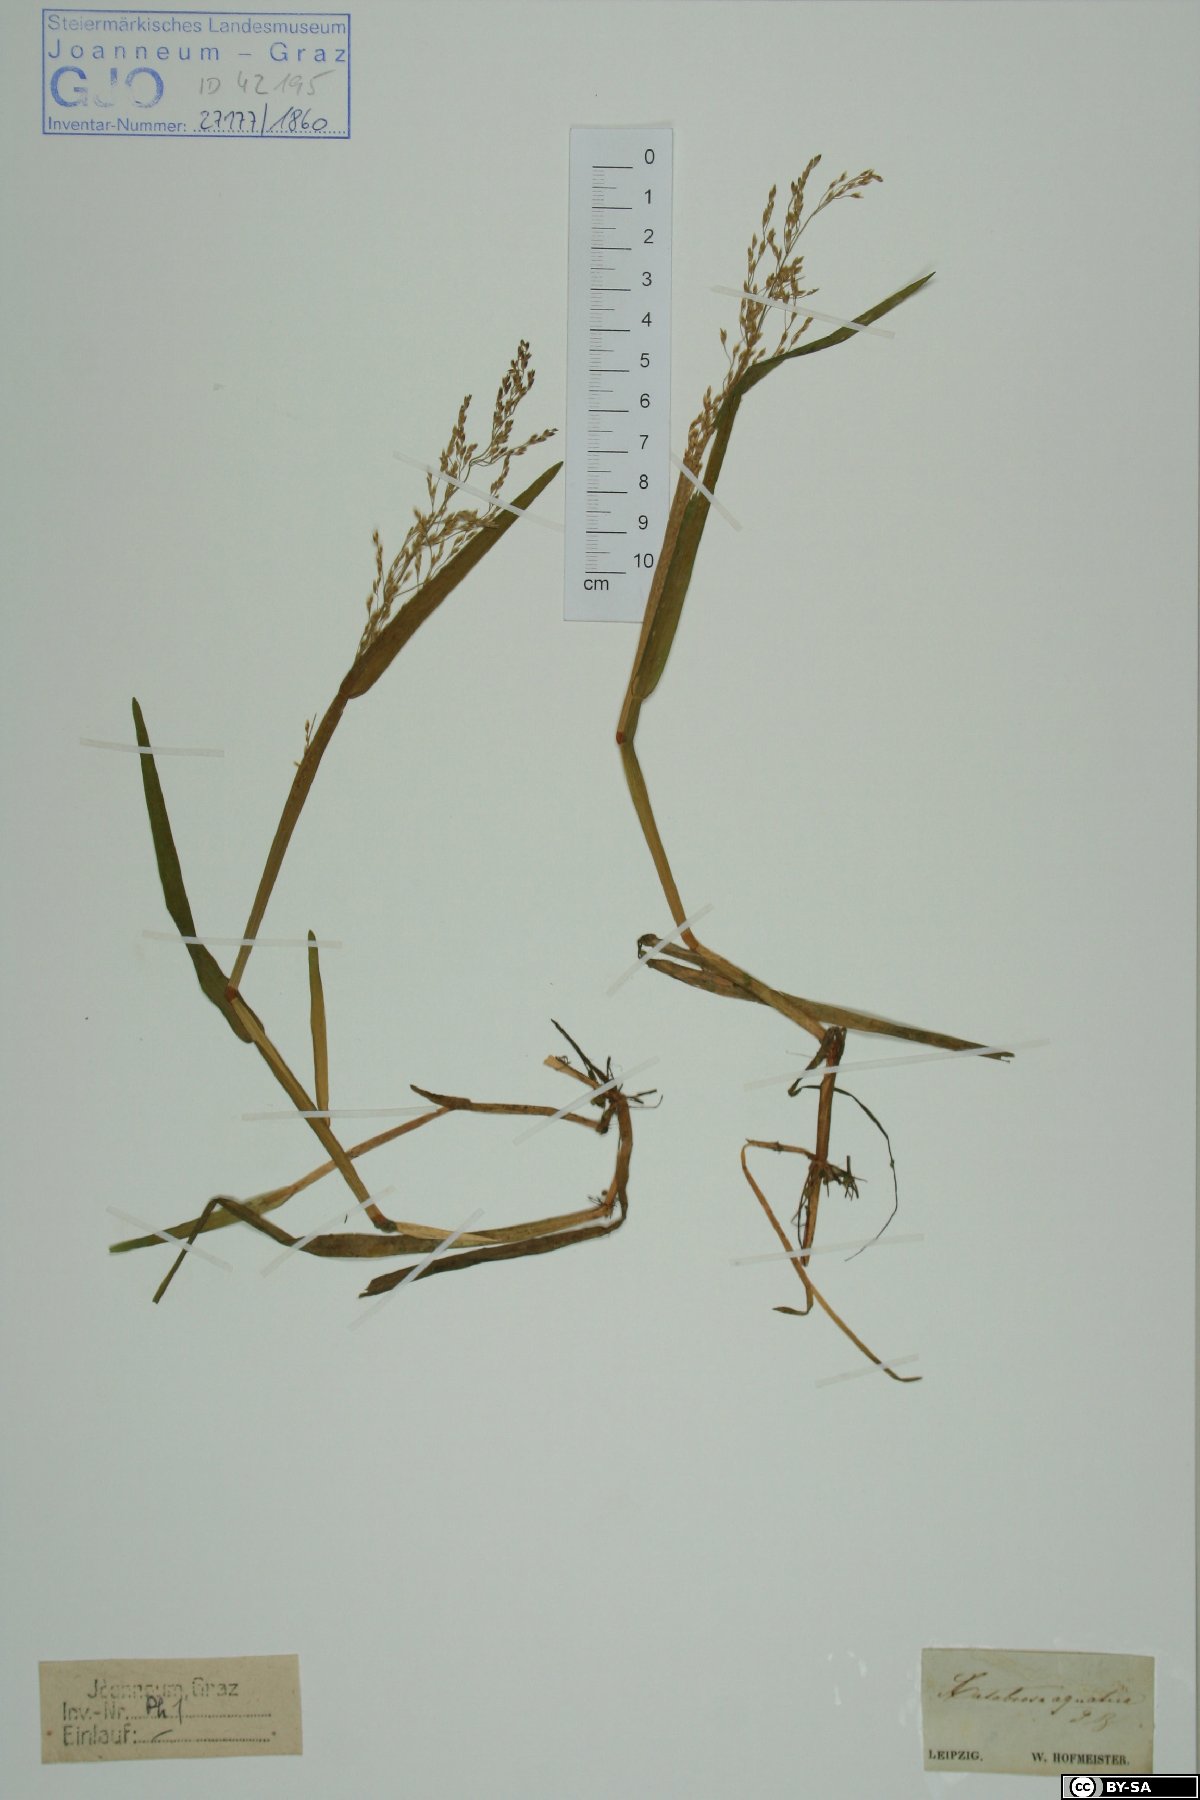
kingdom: Plantae
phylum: Tracheophyta
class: Liliopsida
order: Poales
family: Poaceae
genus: Catabrosa
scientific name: Catabrosa aquatica
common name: Whorl-grass
